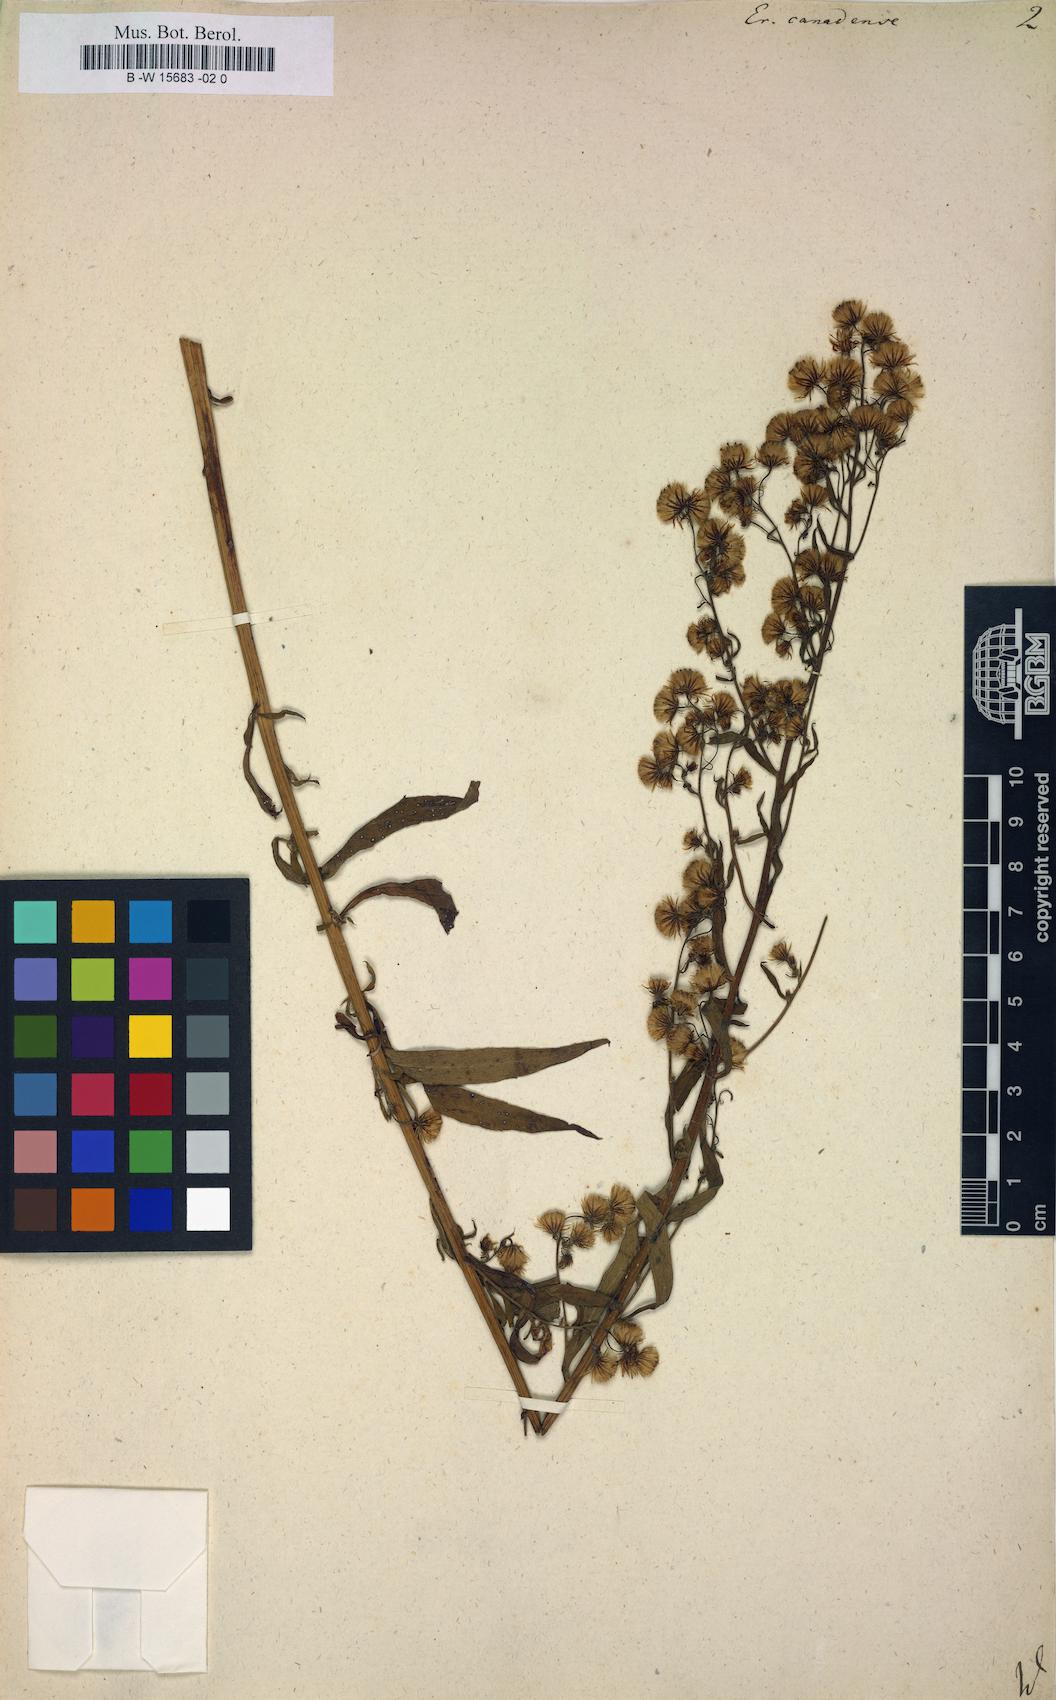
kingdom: Plantae
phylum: Tracheophyta
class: Magnoliopsida
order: Asterales
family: Asteraceae
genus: Erigeron
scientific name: Erigeron canadensis
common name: Canadian fleabane
